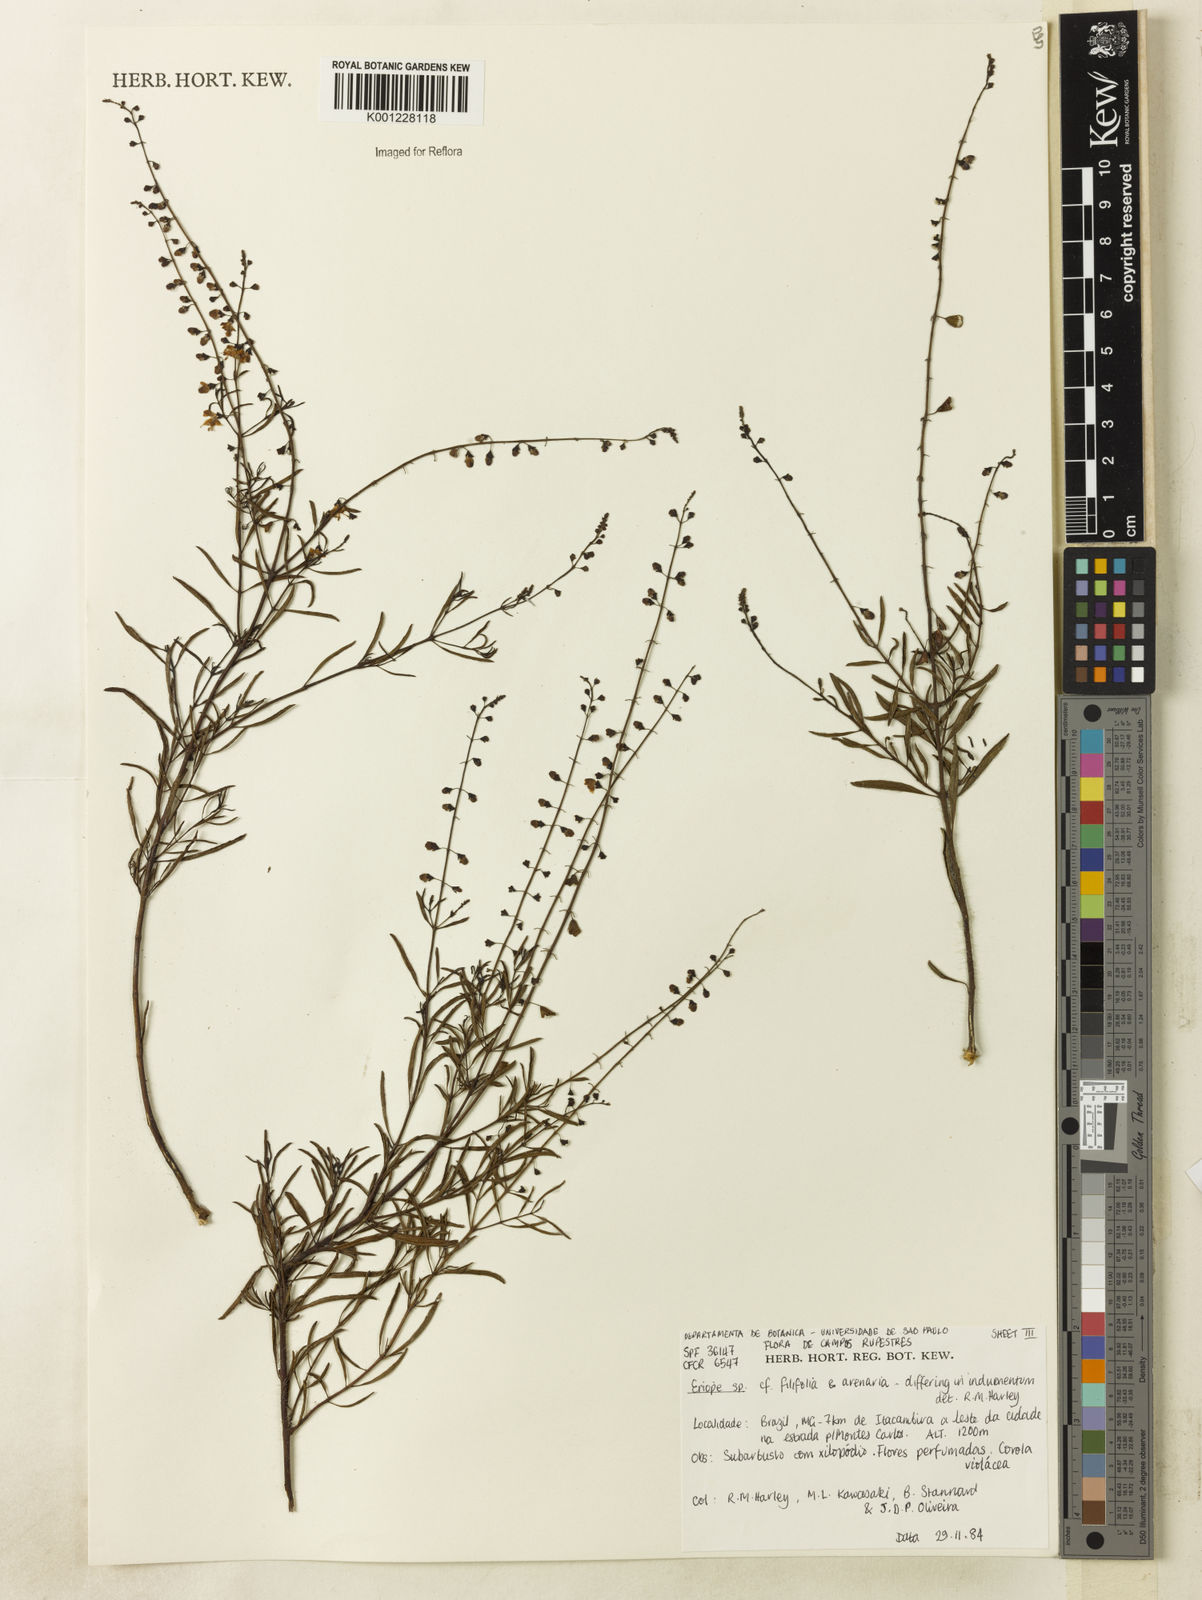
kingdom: Plantae
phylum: Tracheophyta
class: Magnoliopsida
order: Lamiales
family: Lamiaceae
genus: Eriope
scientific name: Eriope
